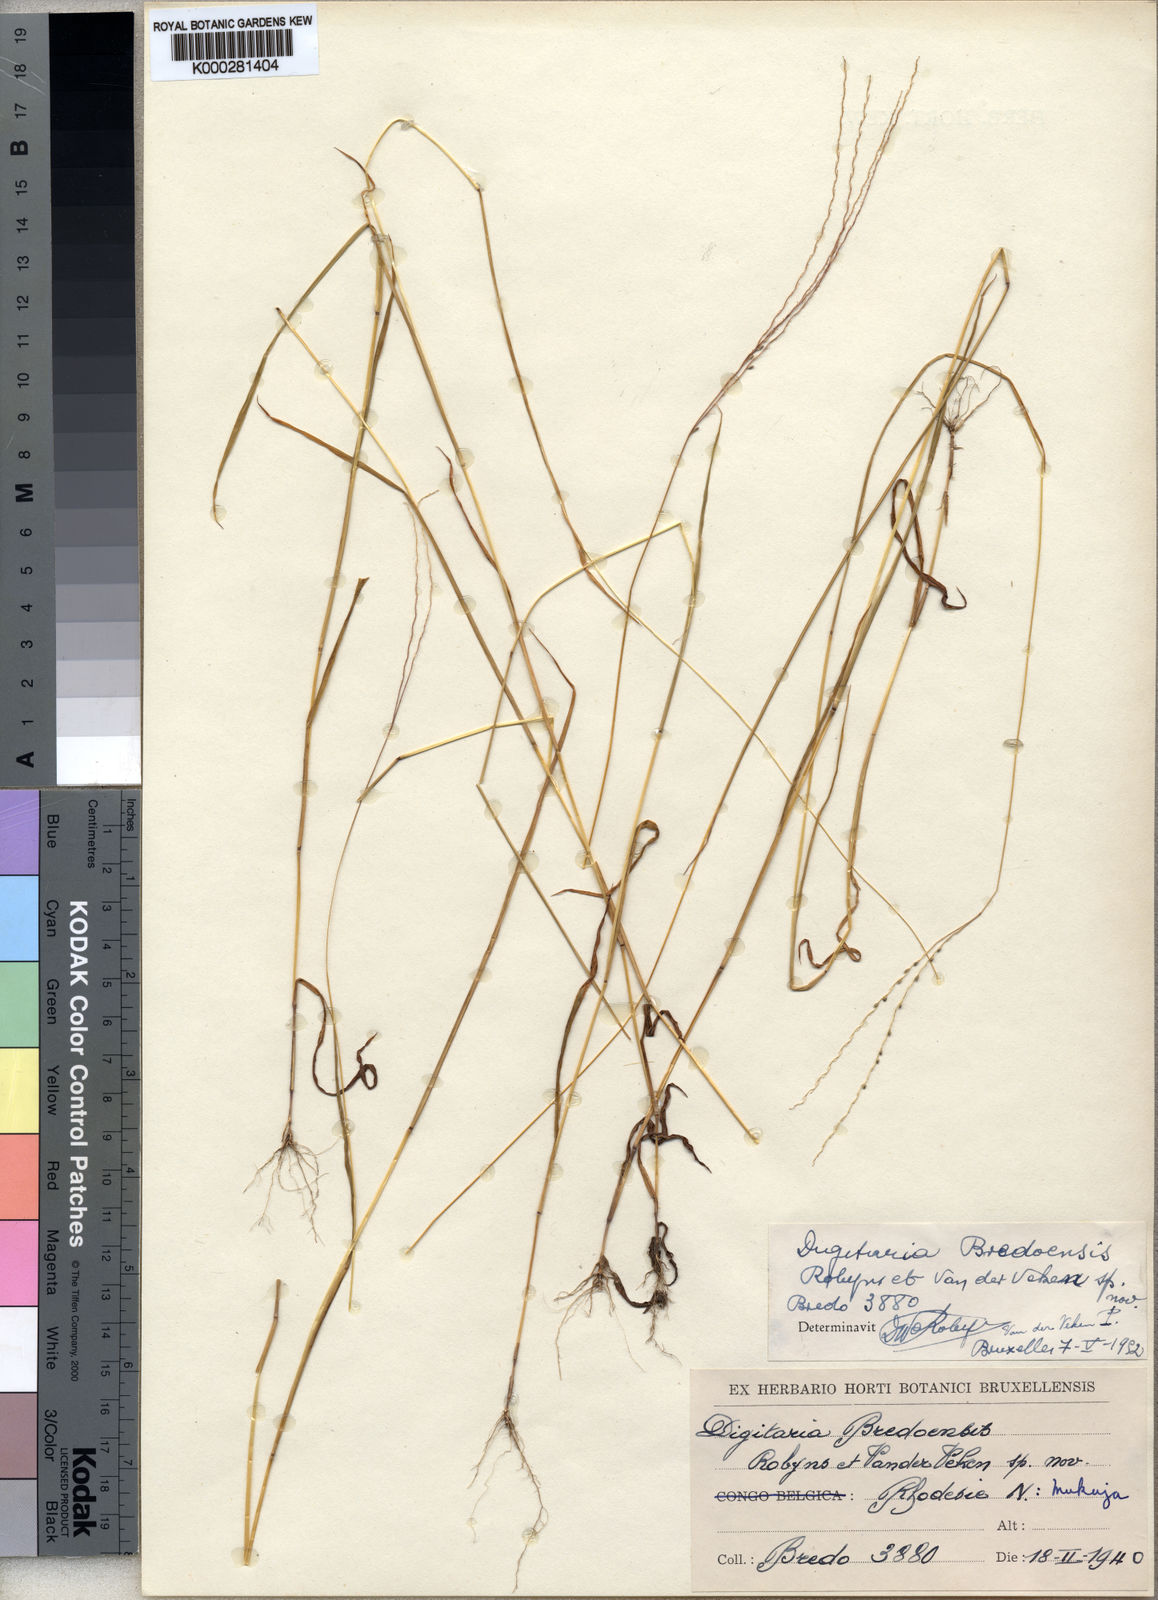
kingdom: Plantae
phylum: Tracheophyta
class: Liliopsida
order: Poales
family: Poaceae
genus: Digitaria
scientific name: Digitaria leptorhachis
